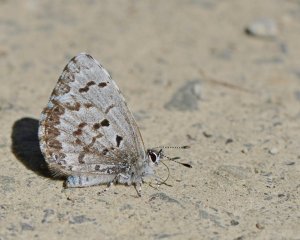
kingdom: Animalia
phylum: Arthropoda
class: Insecta
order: Lepidoptera
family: Lycaenidae
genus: Celastrina
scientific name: Celastrina lucia
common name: Northern Spring Azure
